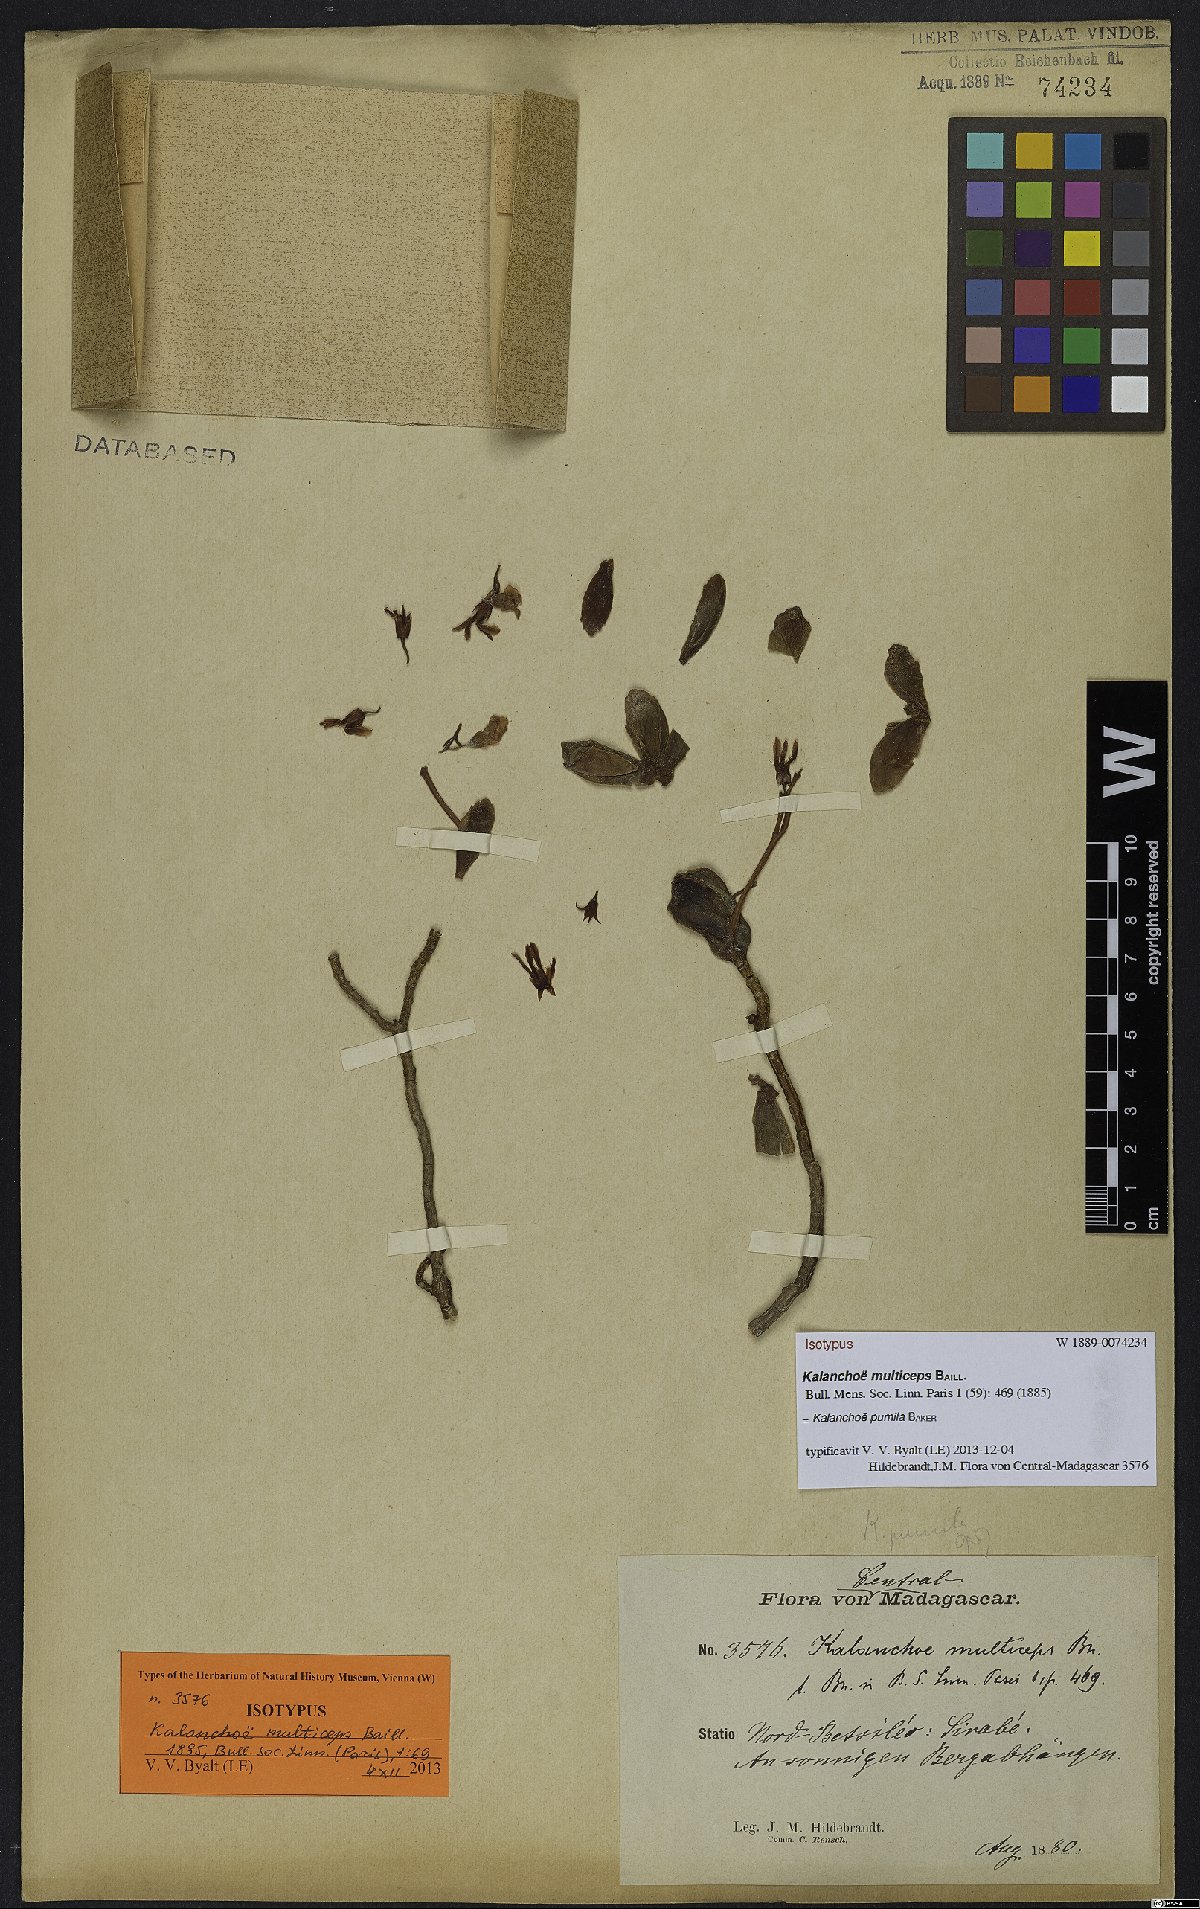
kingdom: Plantae
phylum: Tracheophyta
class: Magnoliopsida
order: Saxifragales
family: Crassulaceae
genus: Kalanchoe
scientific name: Kalanchoe pumila
